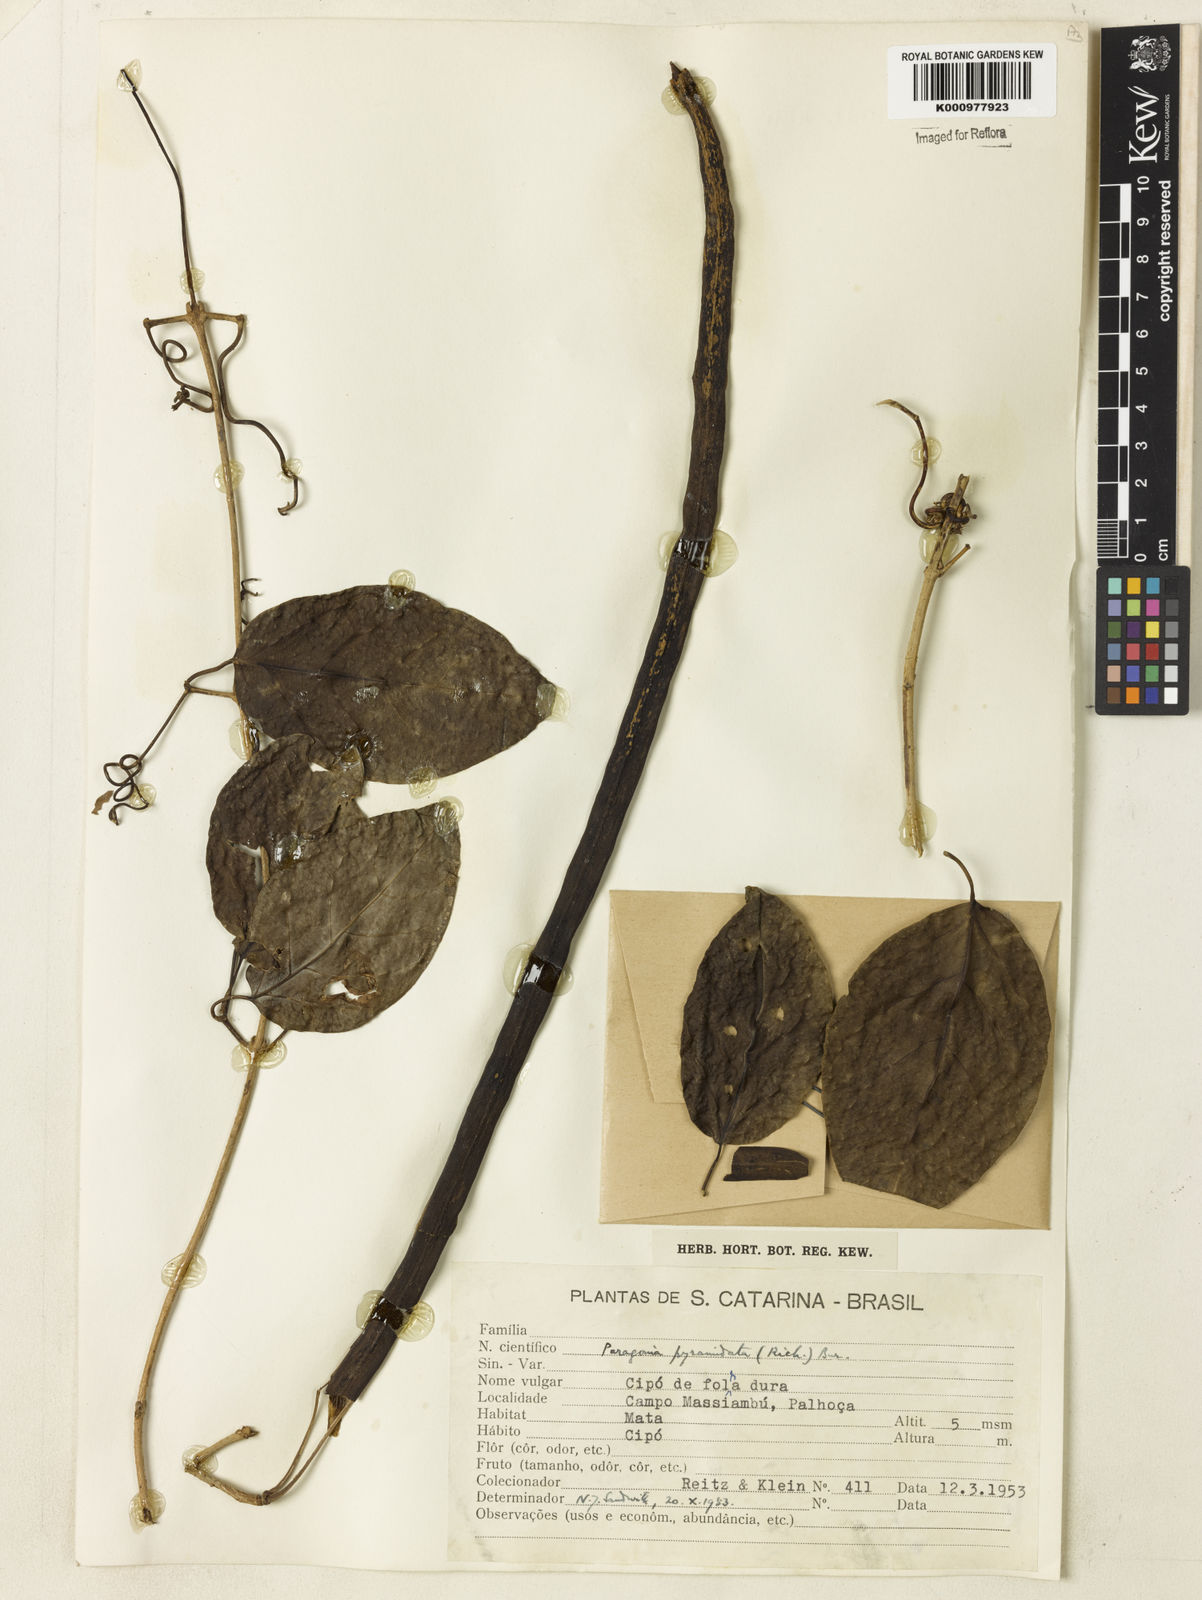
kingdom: Plantae
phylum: Tracheophyta
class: Magnoliopsida
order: Lamiales
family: Bignoniaceae
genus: Tanaecium
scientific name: Tanaecium pyramidatum
